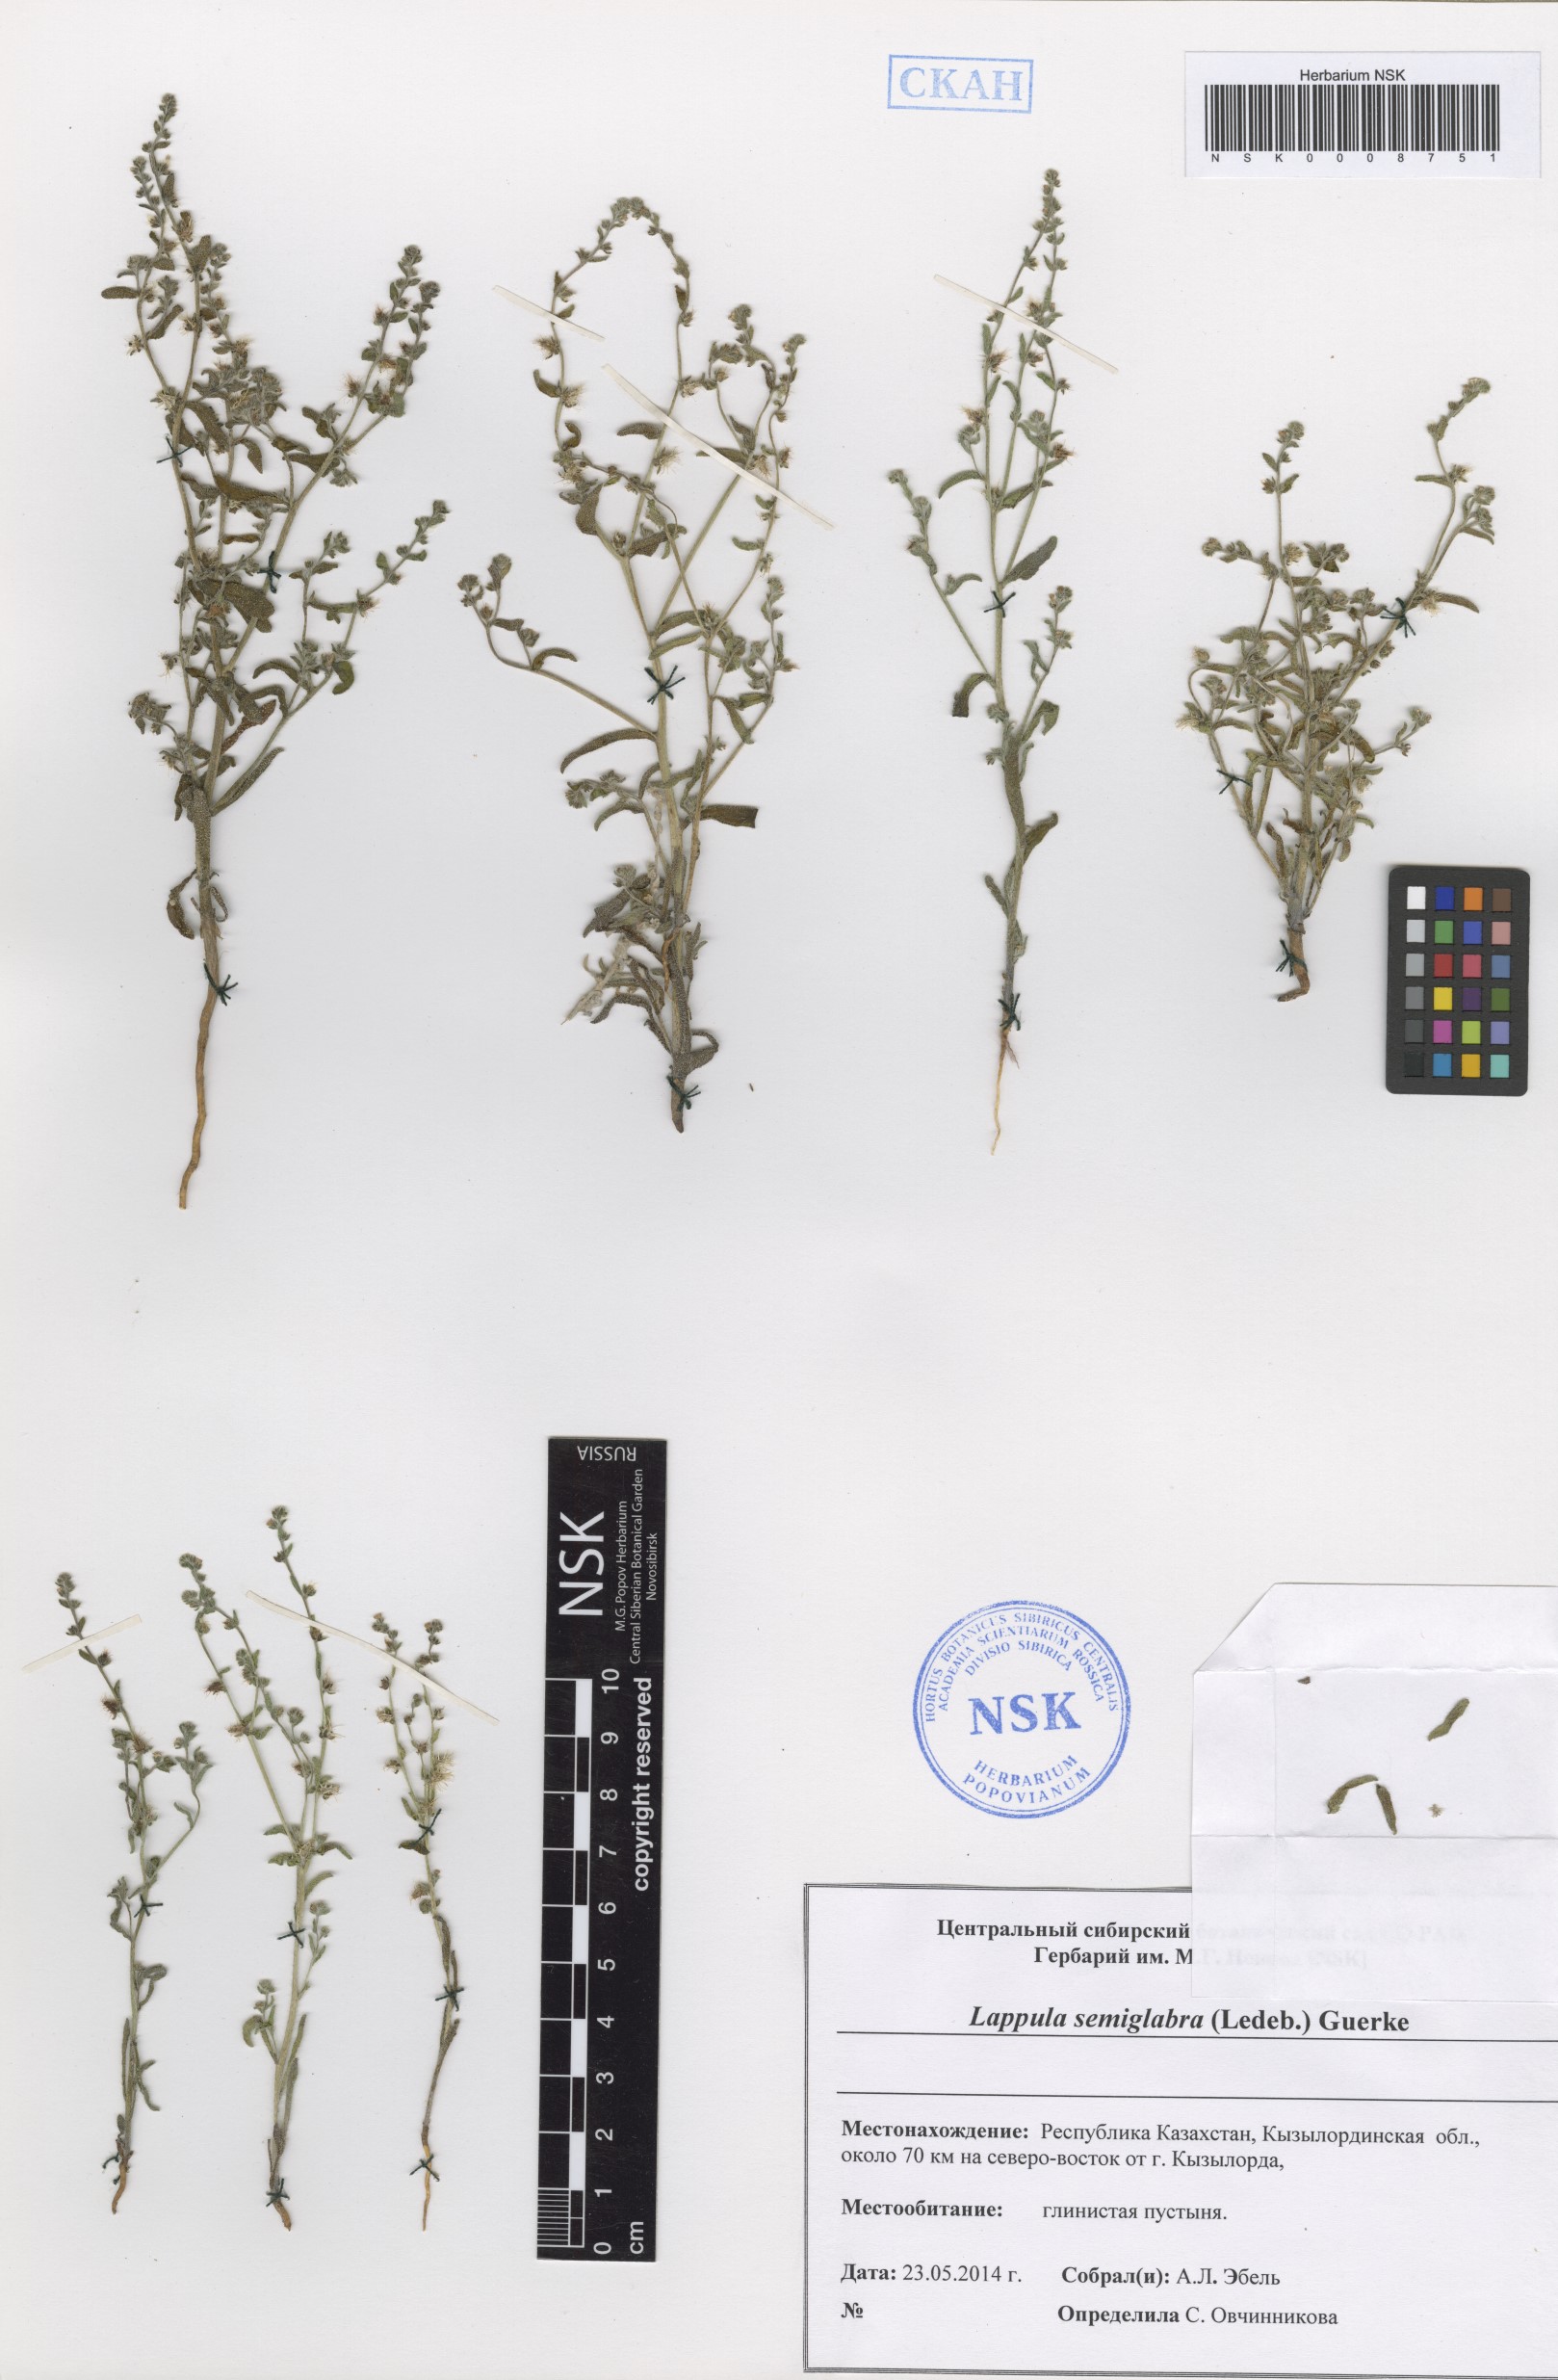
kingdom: Plantae
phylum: Tracheophyta
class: Magnoliopsida
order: Boraginales
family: Boraginaceae
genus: Lappula
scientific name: Lappula patula
